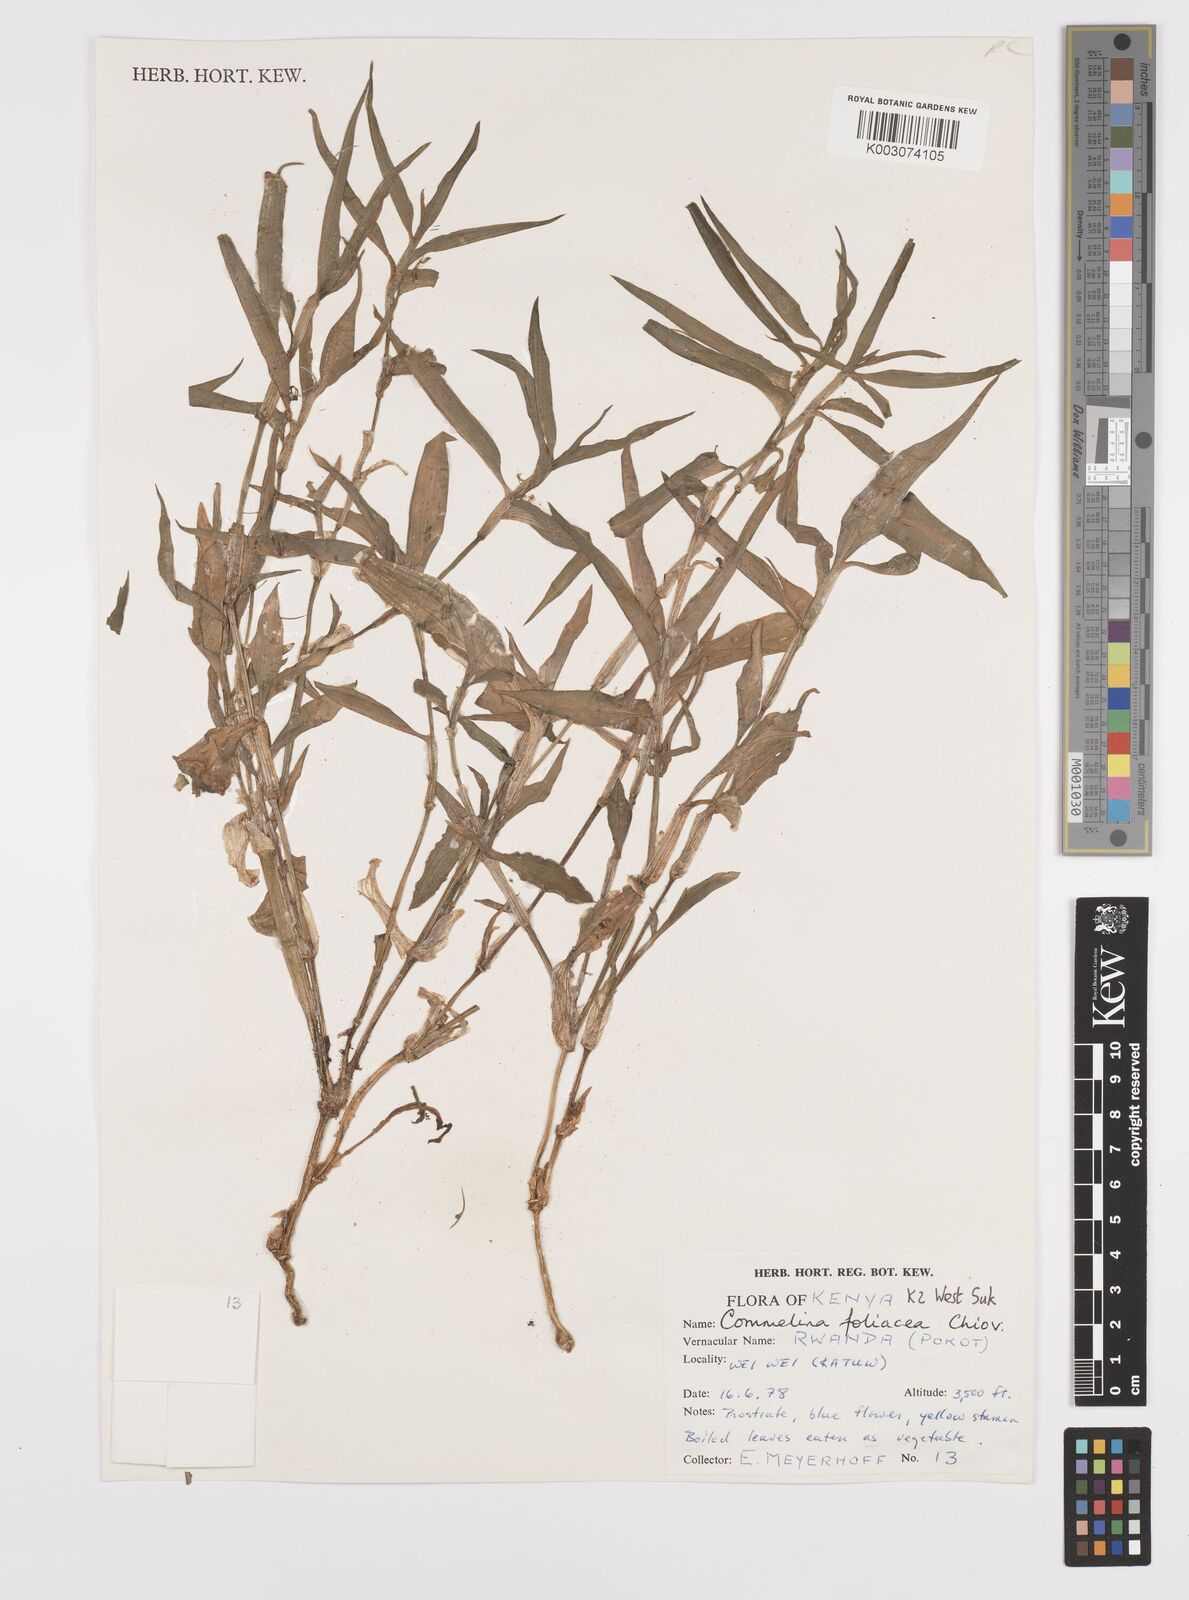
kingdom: Plantae
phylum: Tracheophyta
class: Liliopsida
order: Commelinales
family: Commelinaceae
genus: Commelina
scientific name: Commelina foliacea
